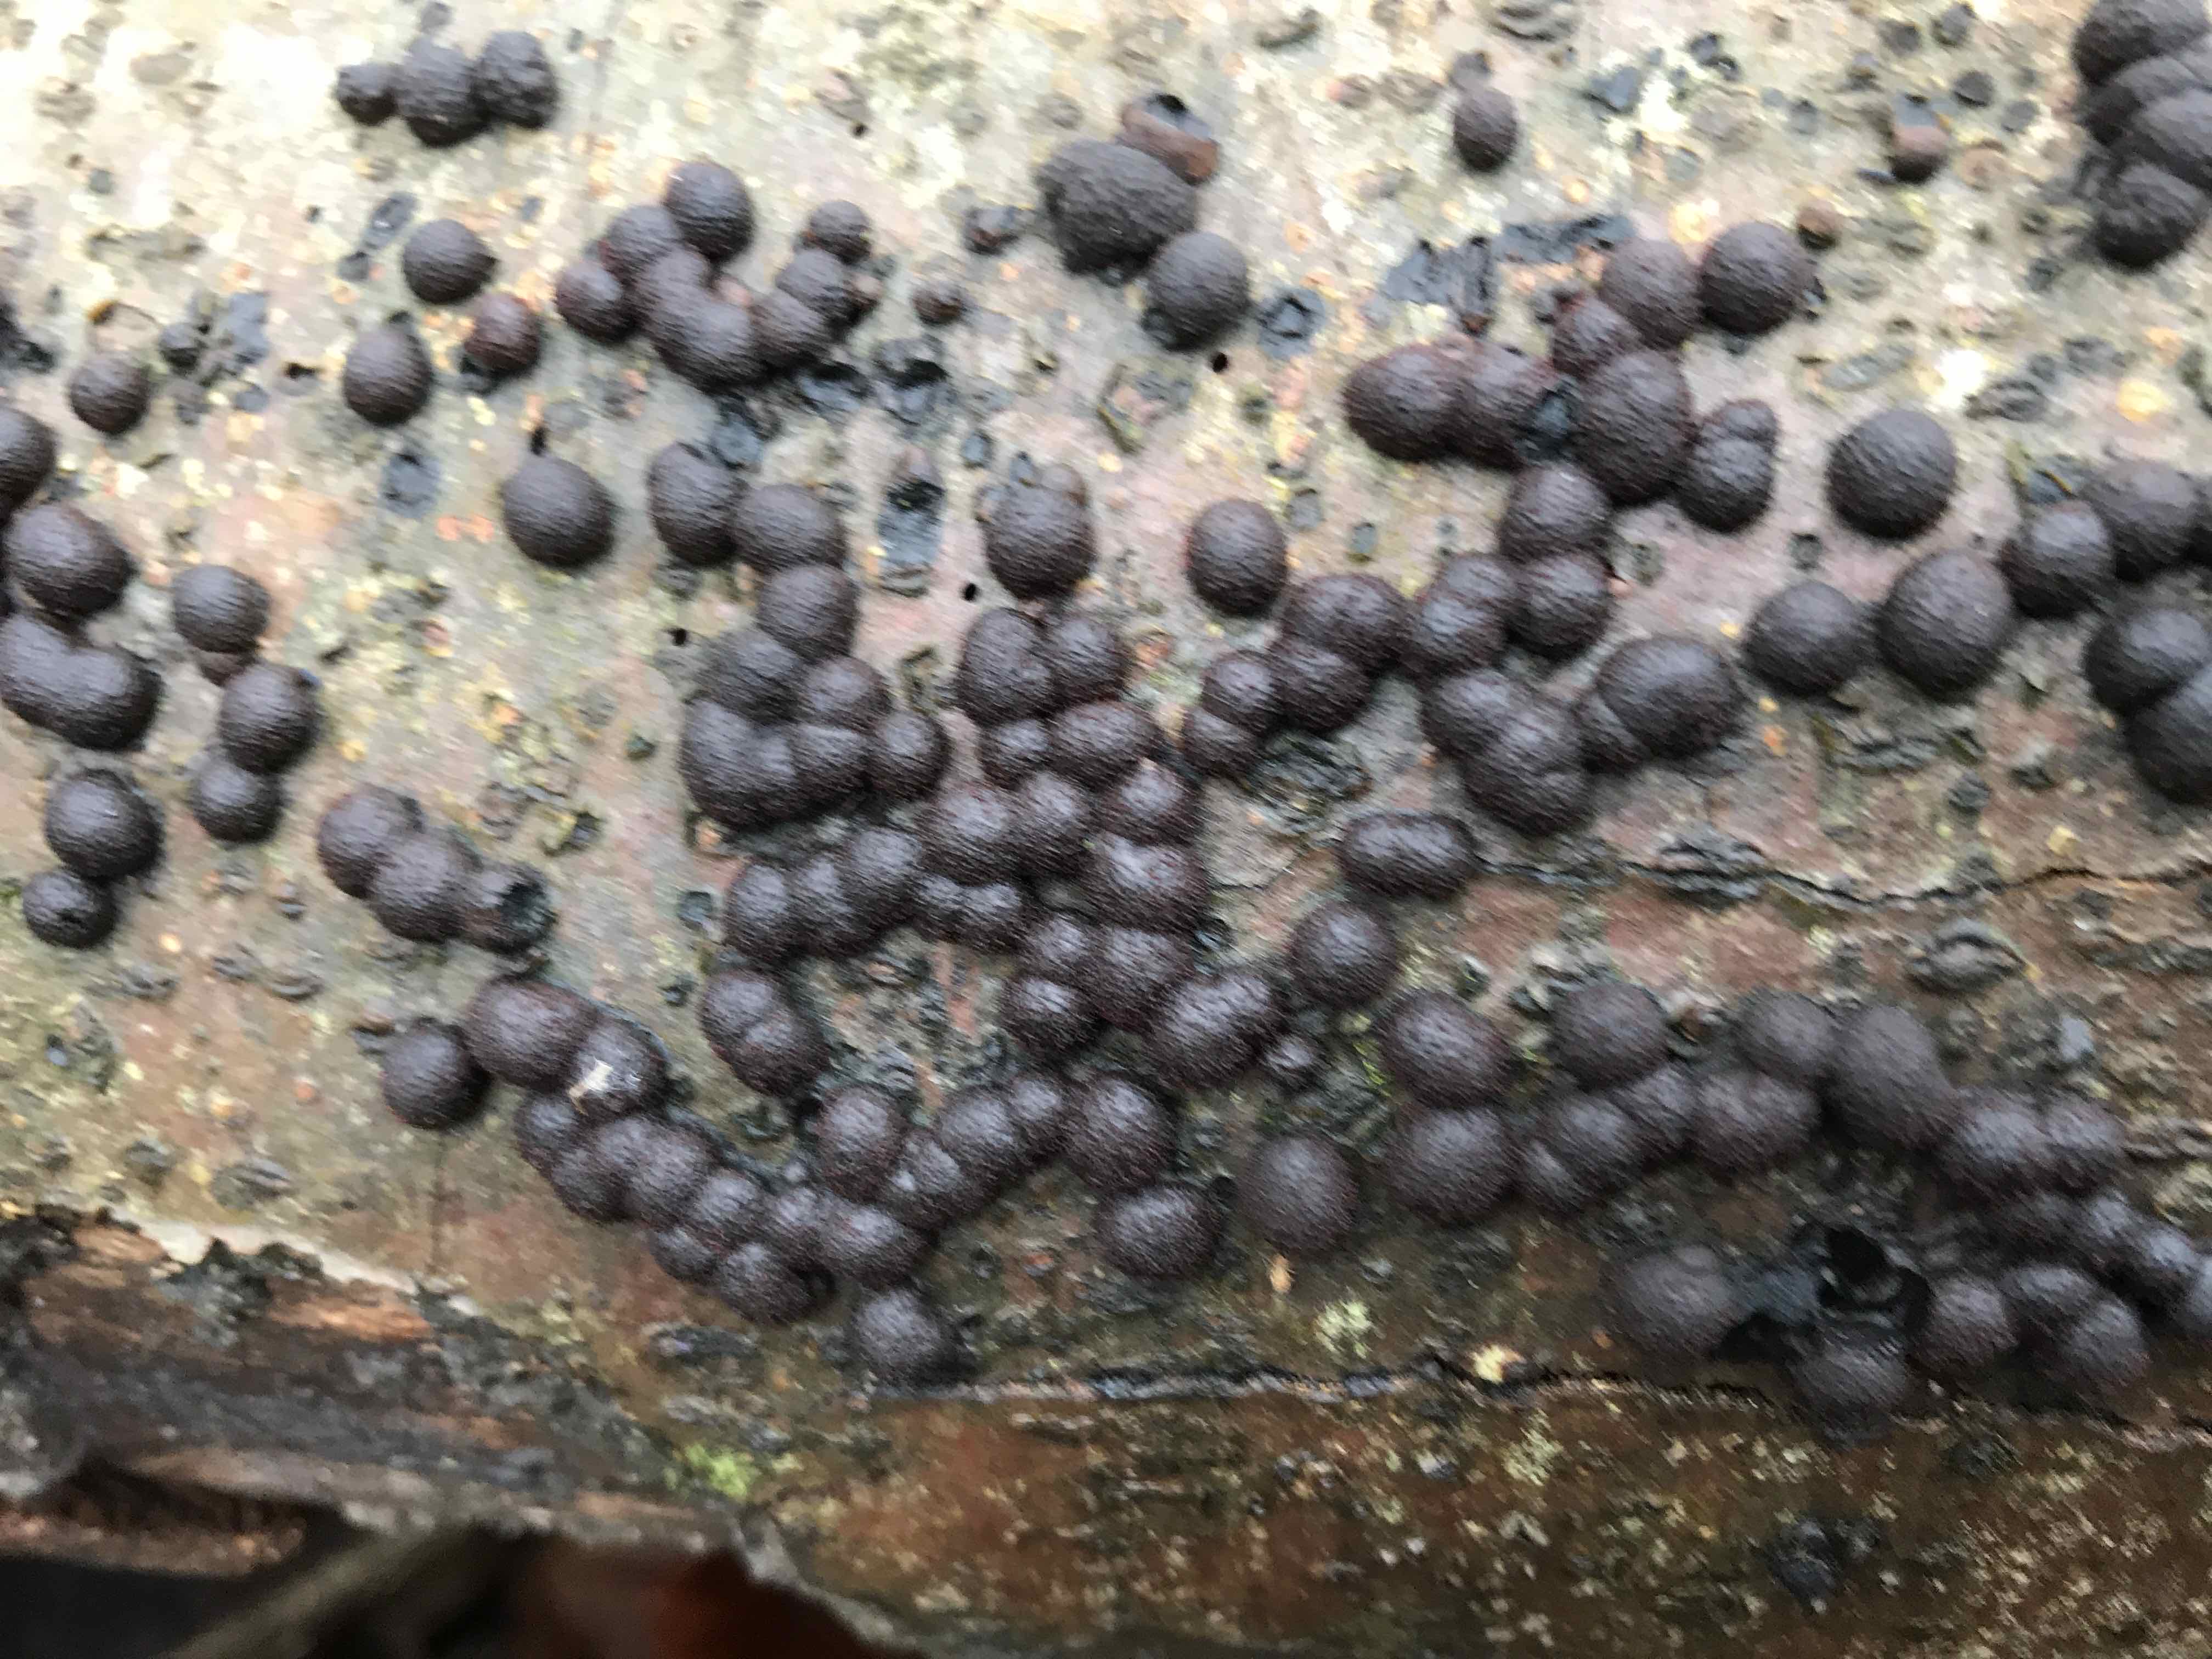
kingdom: Fungi
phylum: Ascomycota
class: Sordariomycetes
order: Xylariales
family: Hypoxylaceae
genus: Hypoxylon
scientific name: Hypoxylon fragiforme
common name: kuljordbær
